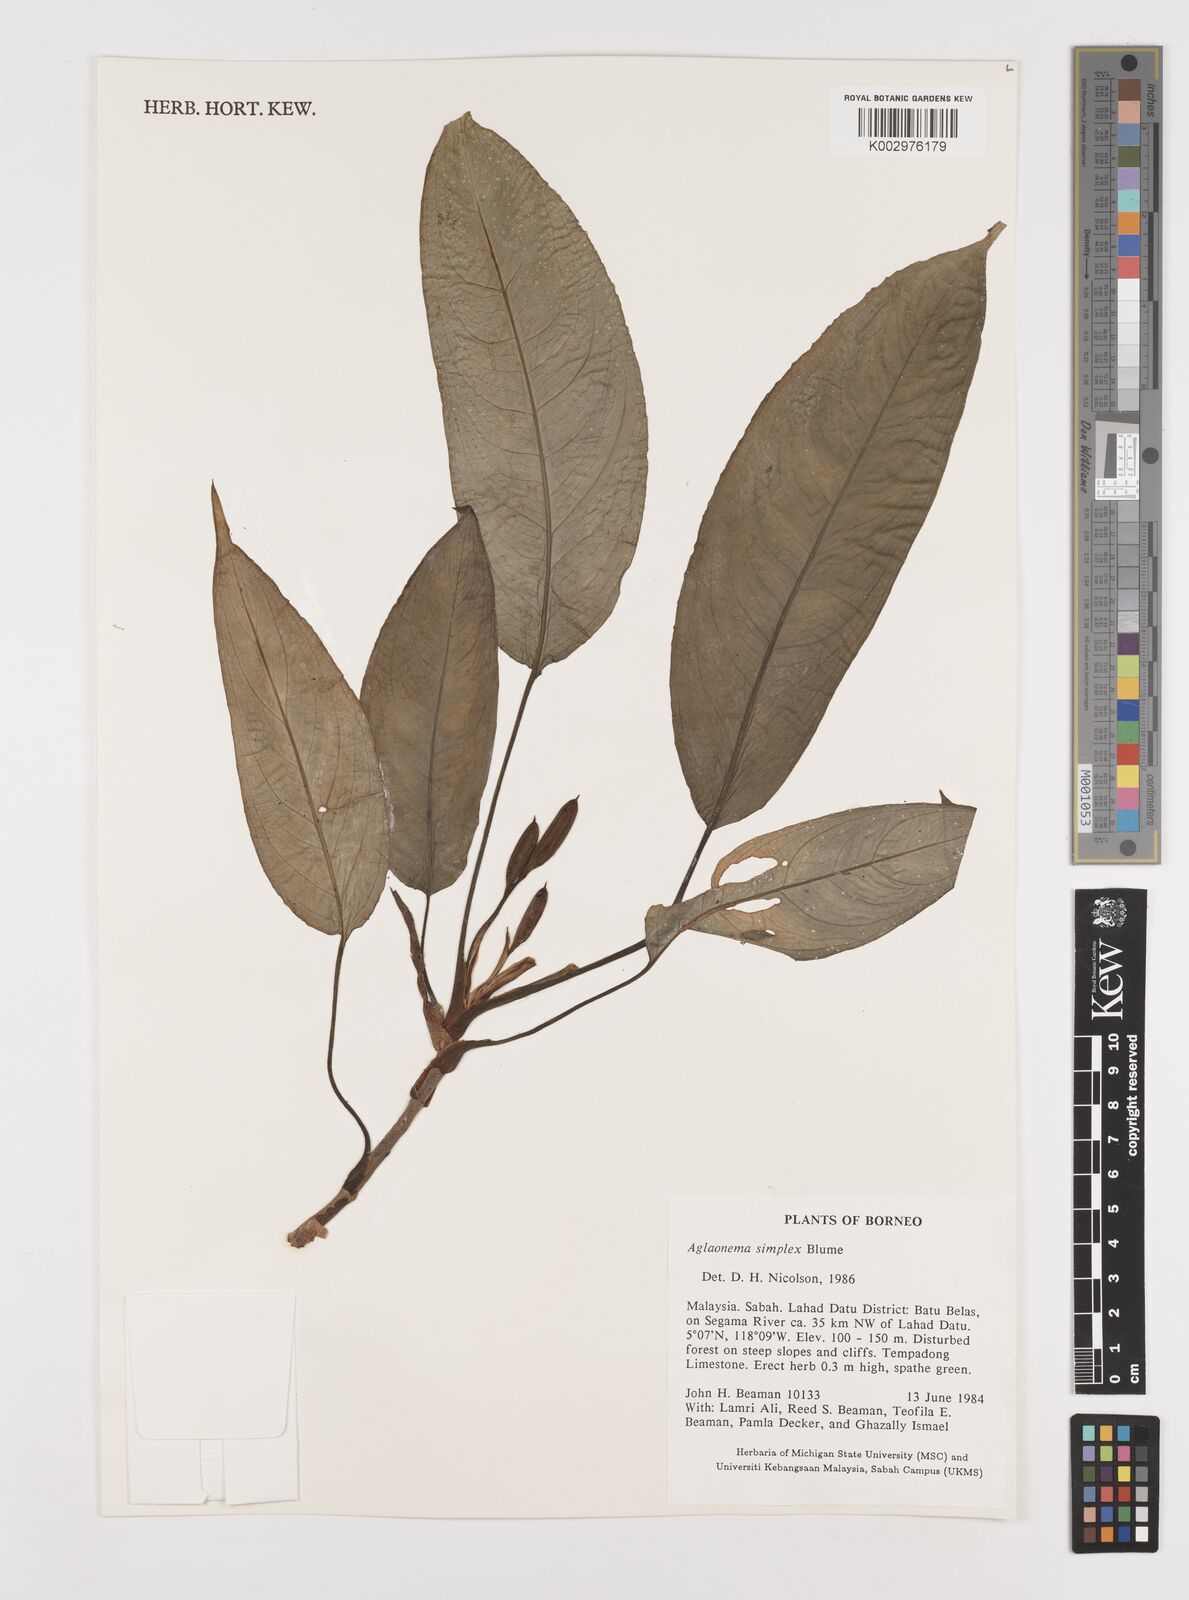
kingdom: Plantae
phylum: Tracheophyta
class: Liliopsida
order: Alismatales
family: Araceae
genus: Aglaonema
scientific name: Aglaonema simplex
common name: Malayan-sword
